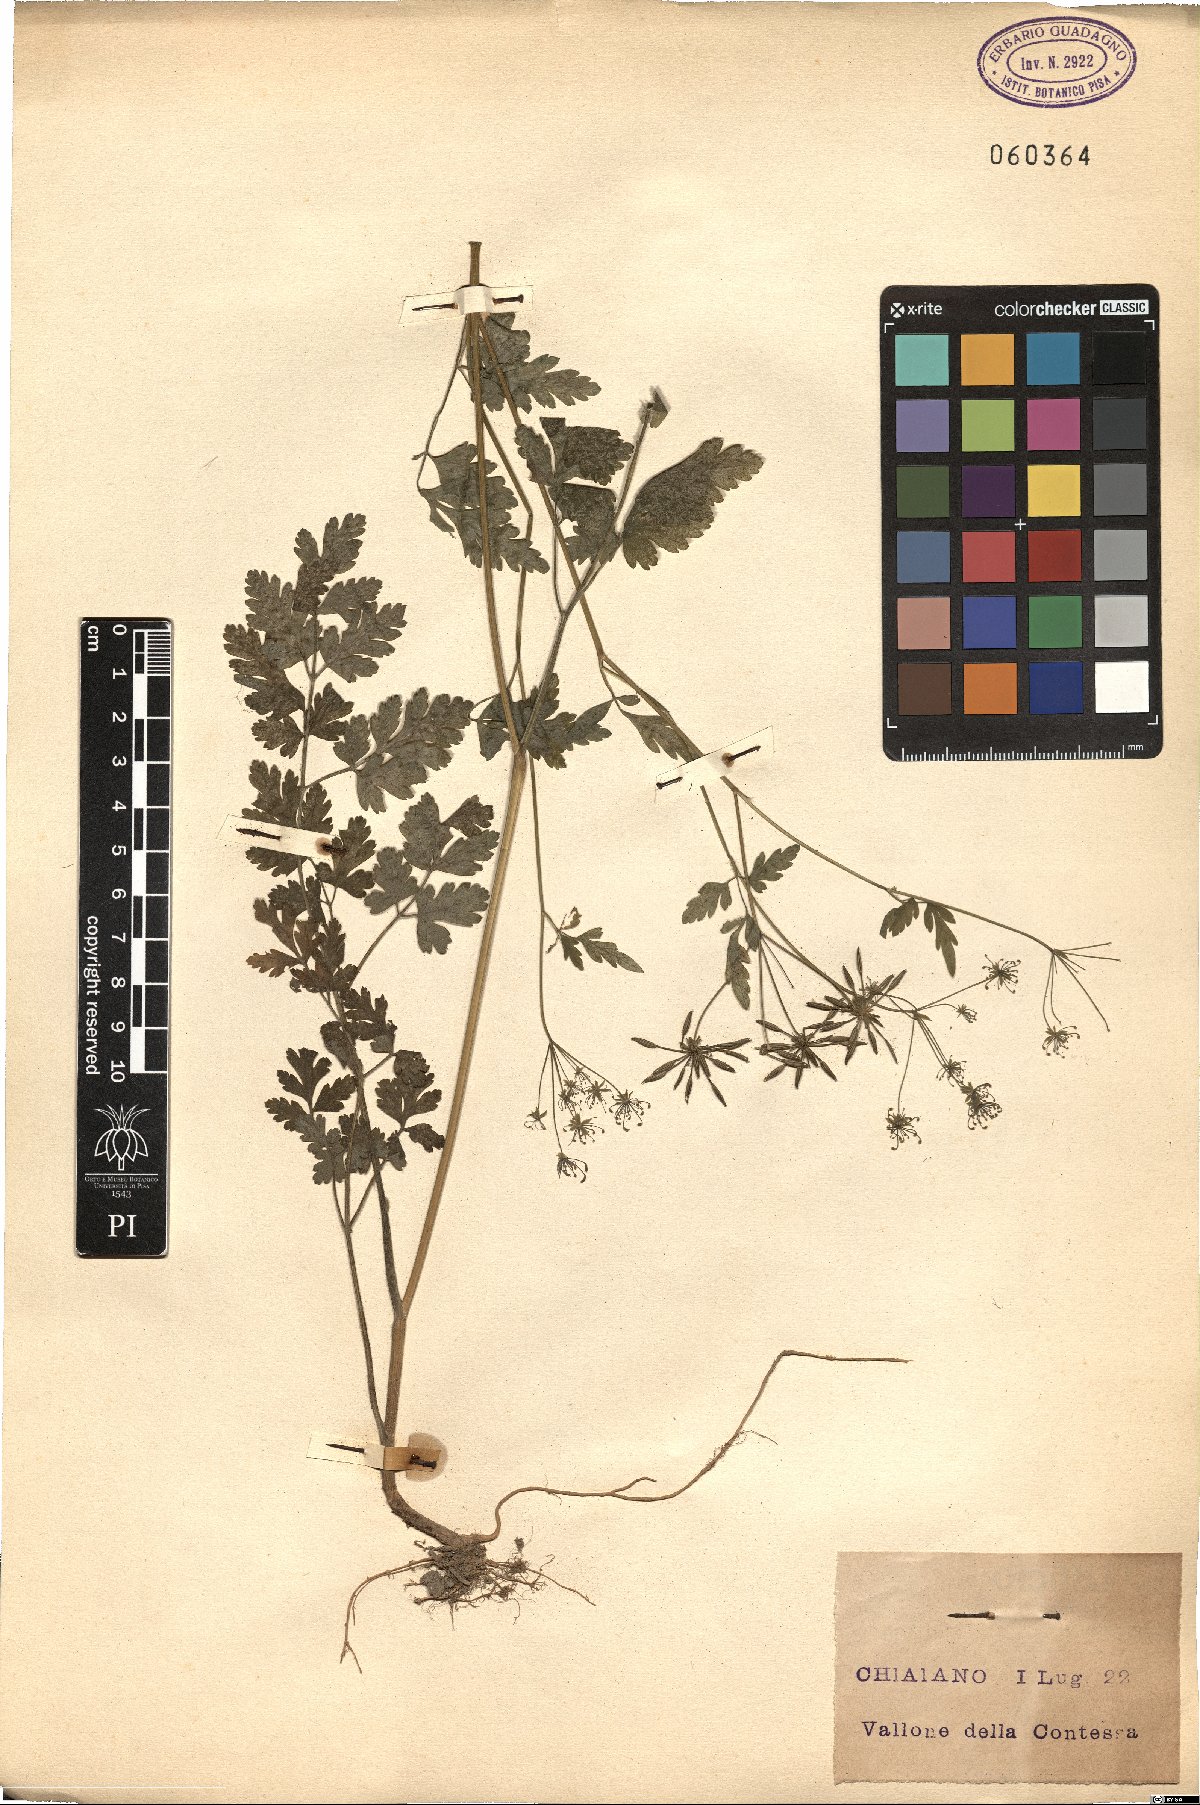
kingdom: Plantae
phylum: Tracheophyta
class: Magnoliopsida
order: Apiales
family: Apiaceae
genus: Chaerophyllum
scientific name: Chaerophyllum temulum
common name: Rough chervil
